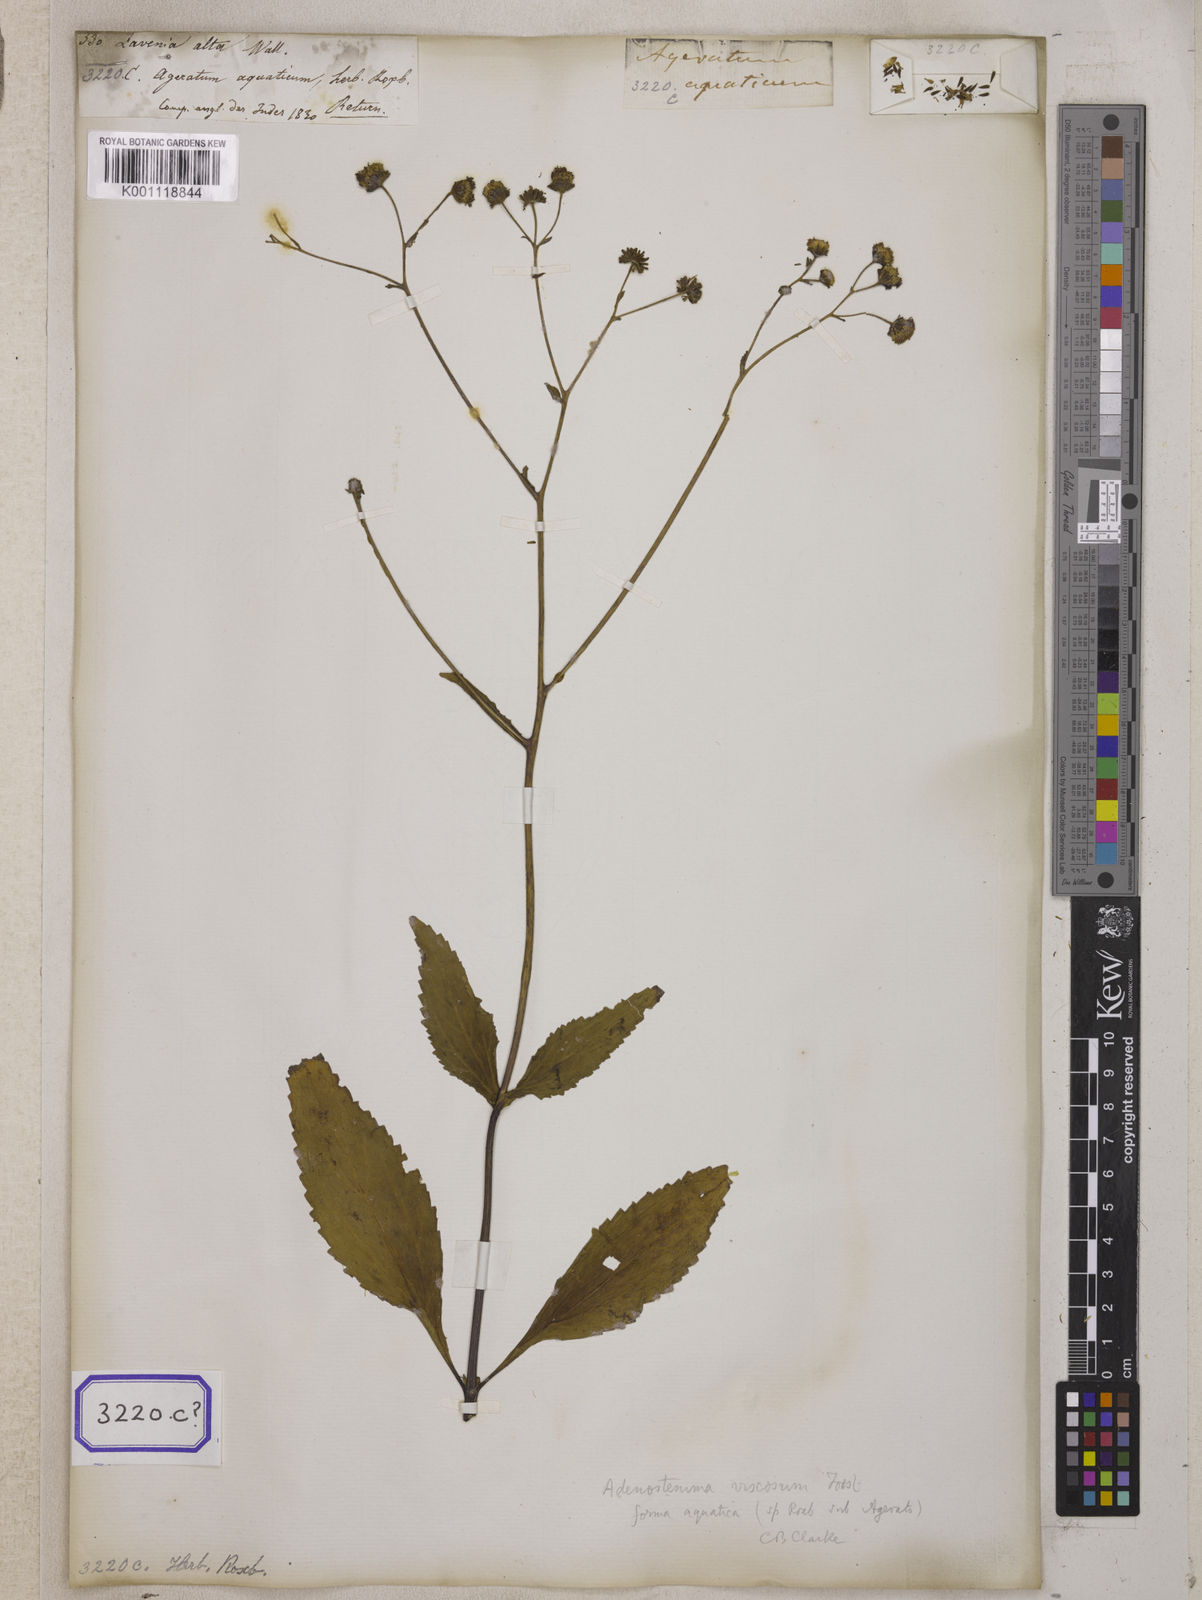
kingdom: Plantae
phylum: Tracheophyta
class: Magnoliopsida
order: Asterales
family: Asteraceae
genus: Adenostemma
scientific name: Adenostemma viscosum
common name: Dungweed
